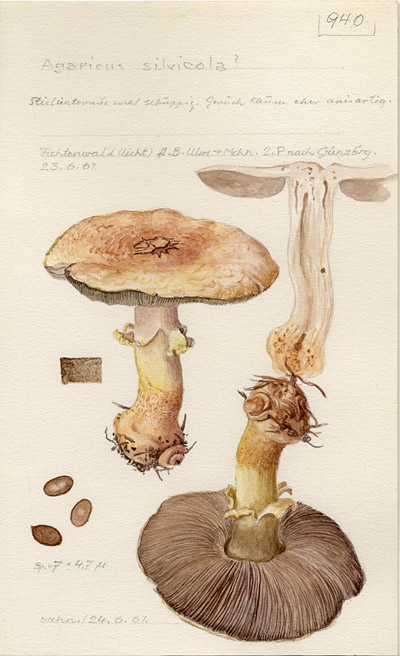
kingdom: Fungi
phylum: Basidiomycota
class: Agaricomycetes
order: Agaricales
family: Agaricaceae
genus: Agaricus
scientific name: Agaricus sylvicola
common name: Wood mushroom
